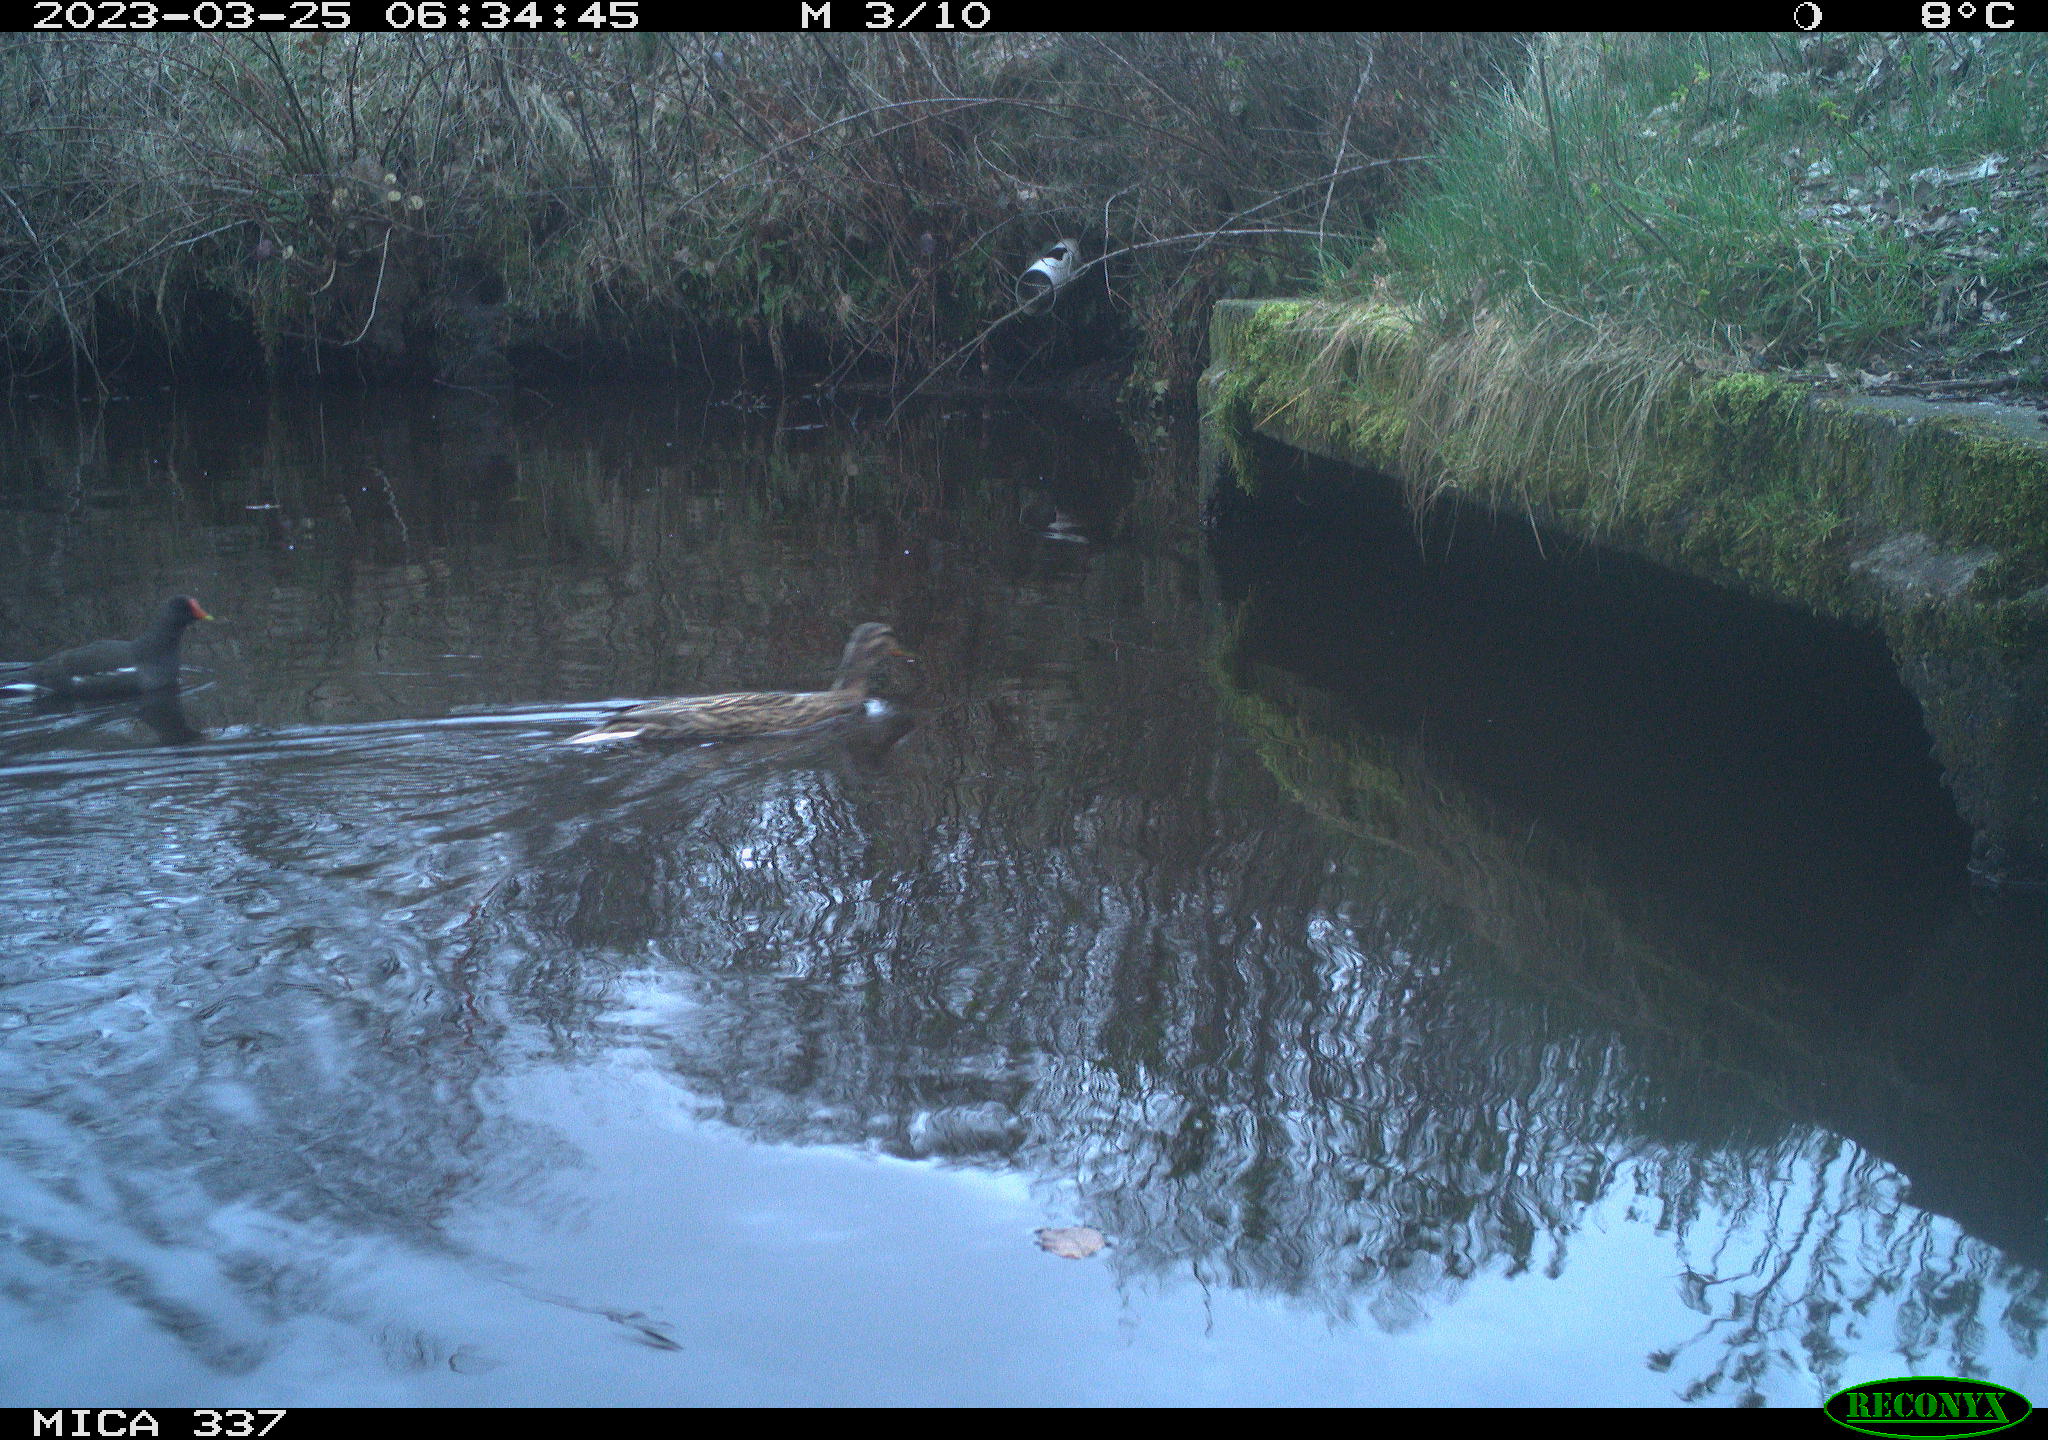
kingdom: Animalia
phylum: Chordata
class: Aves
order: Anseriformes
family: Anatidae
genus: Anas
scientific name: Anas platyrhynchos
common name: Mallard
